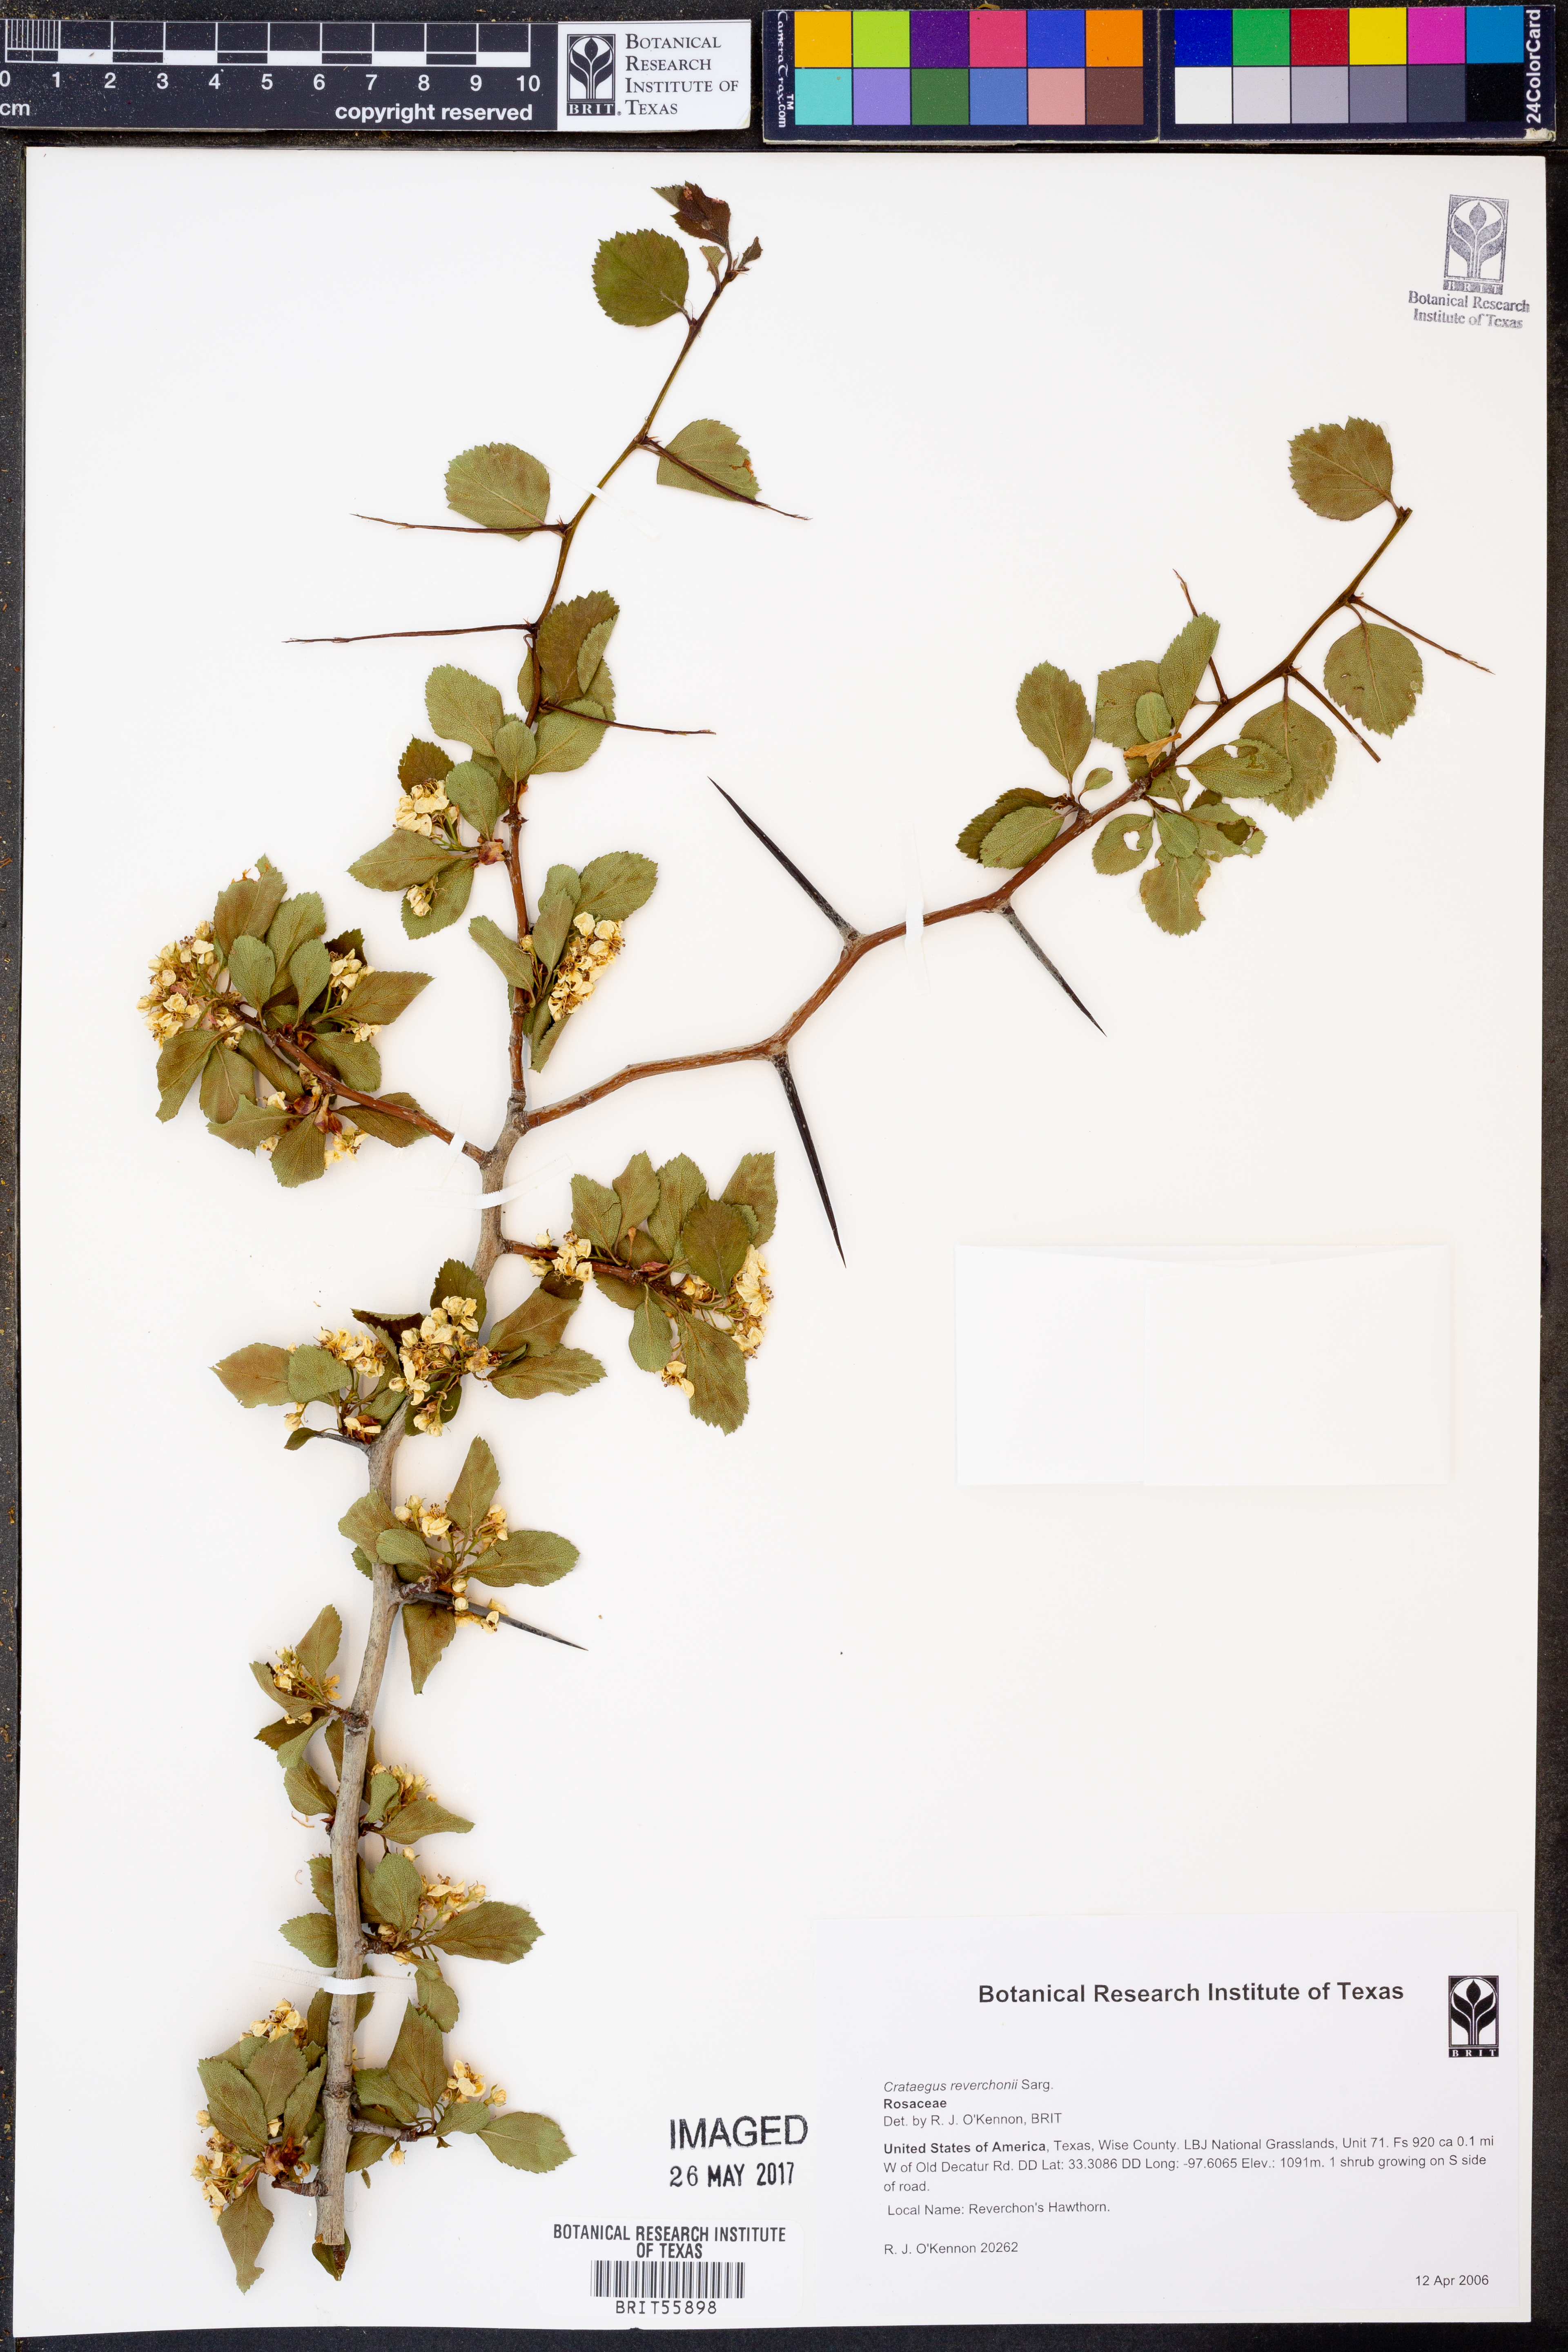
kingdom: Plantae
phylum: Tracheophyta
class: Magnoliopsida
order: Rosales
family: Rosaceae
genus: Crataegus
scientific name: Crataegus reverchonii
